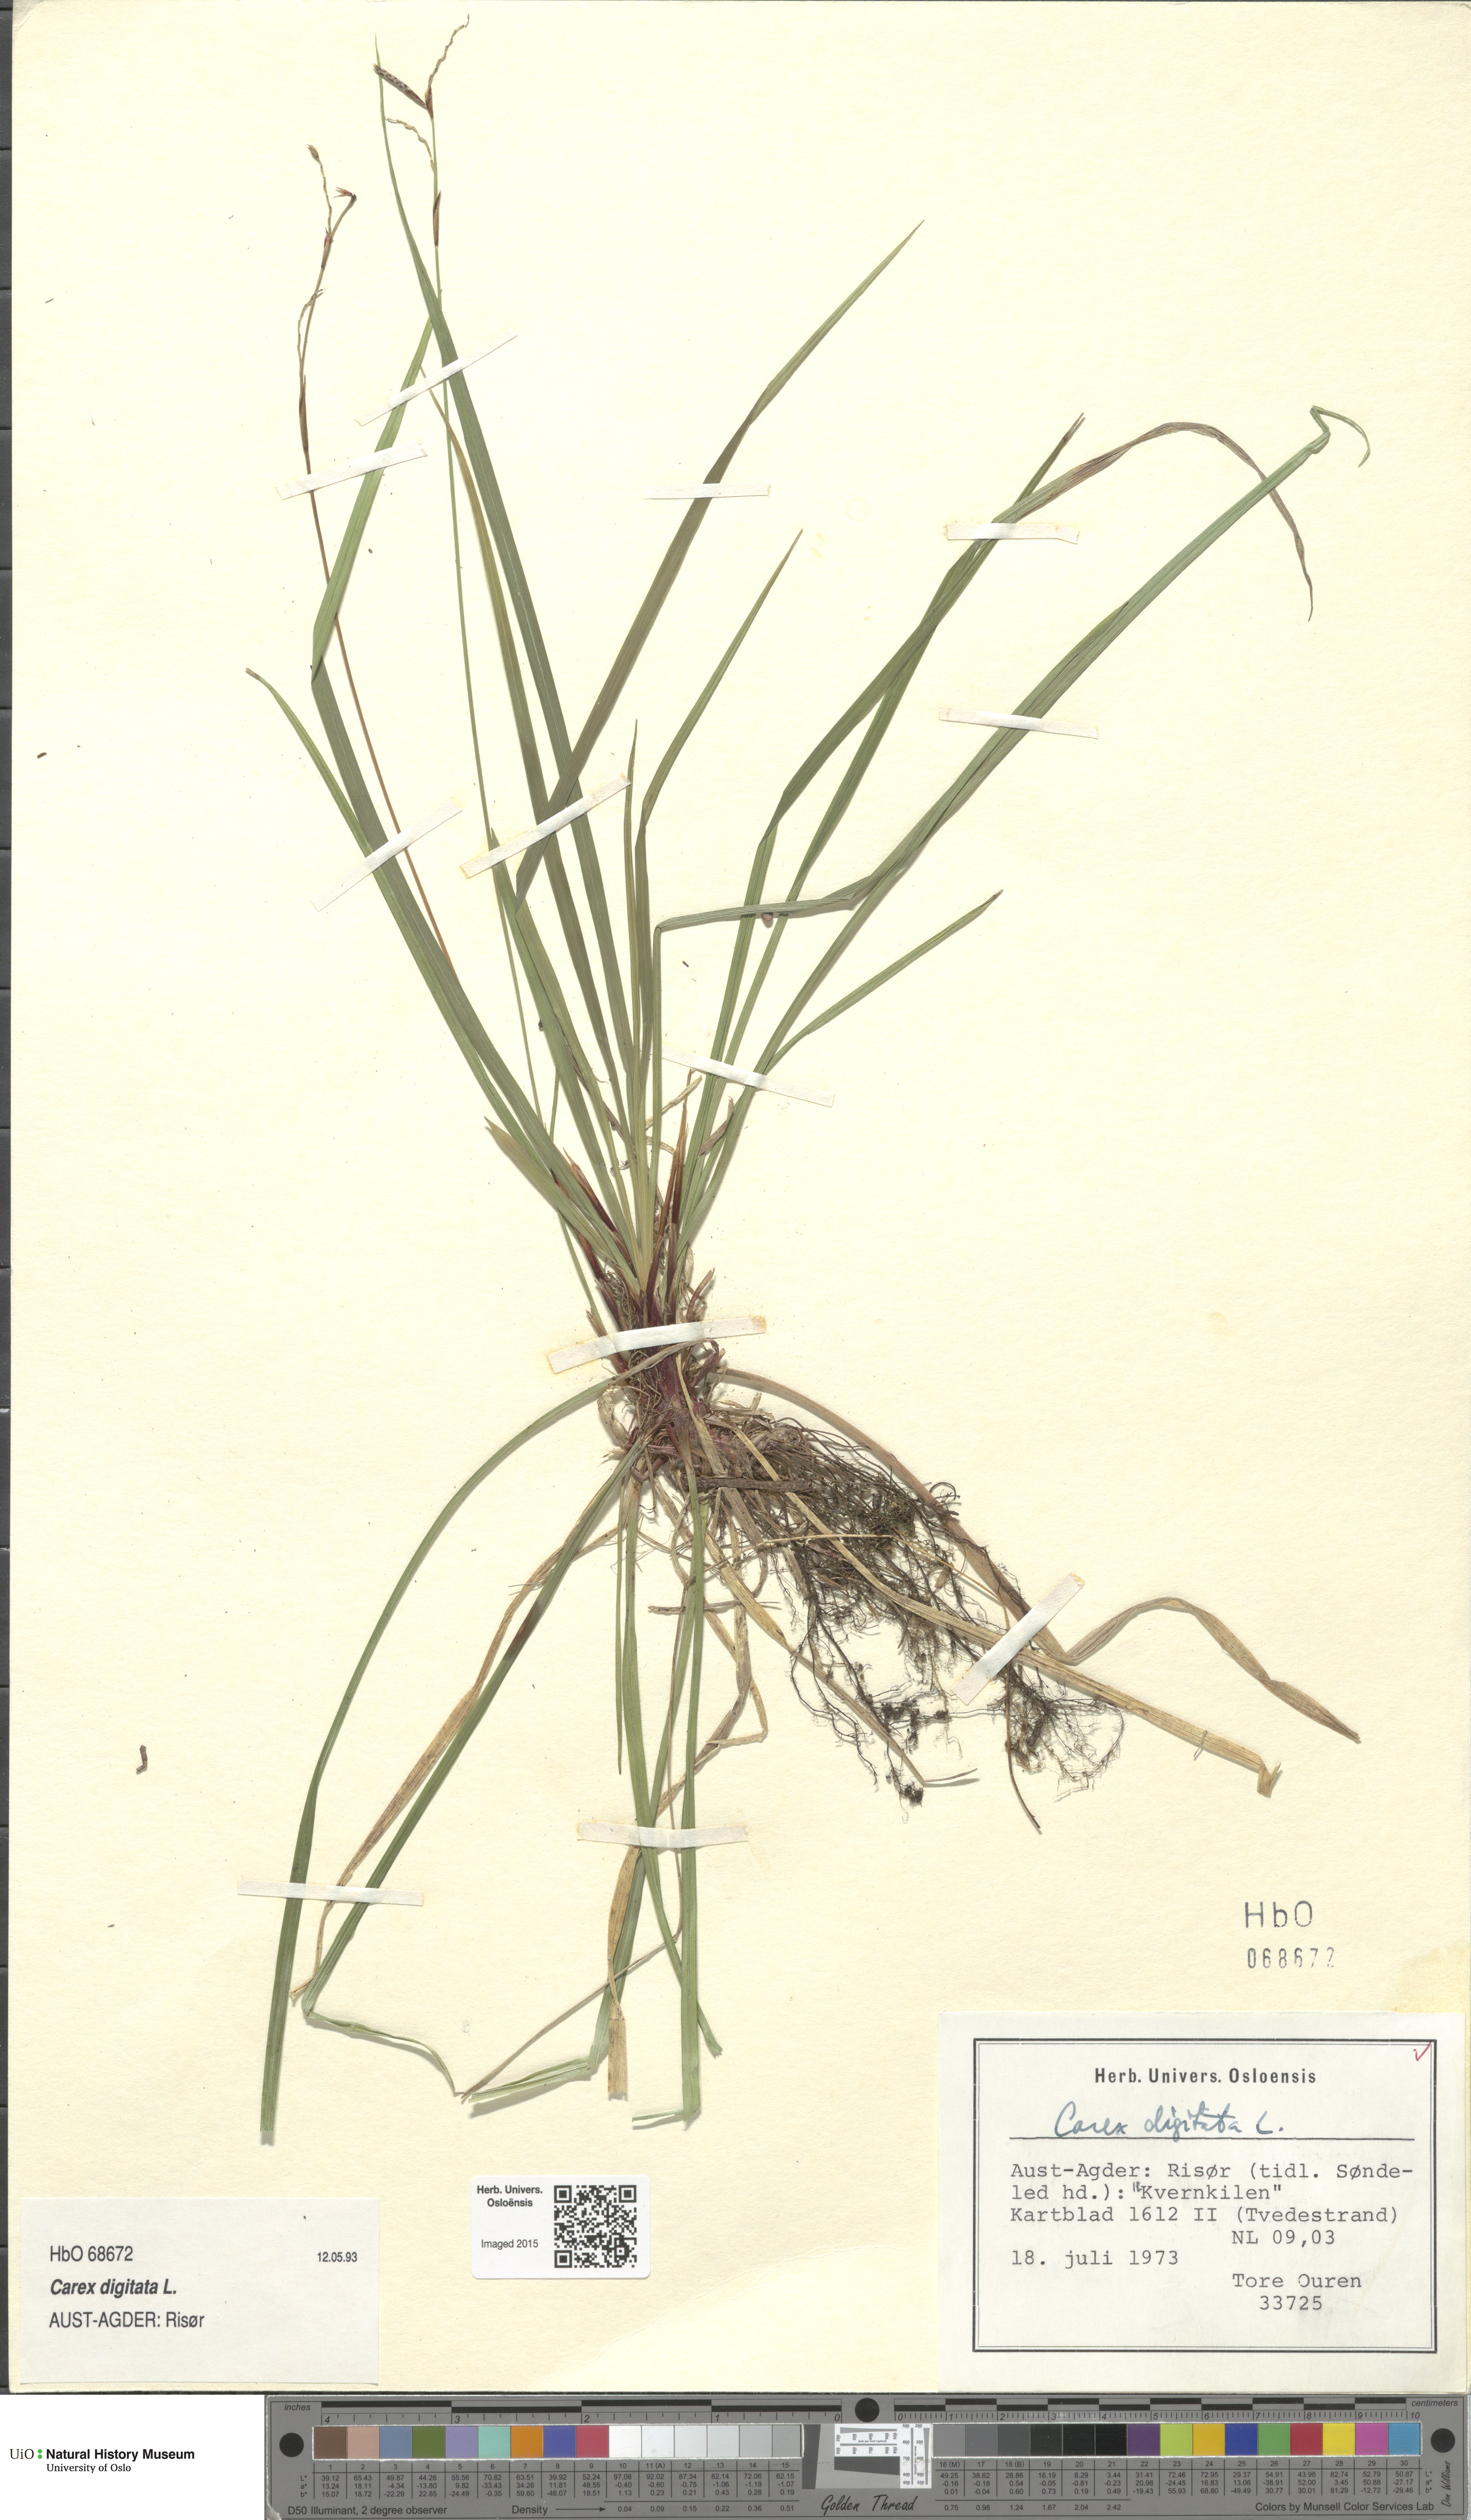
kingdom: Plantae
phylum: Tracheophyta
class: Liliopsida
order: Poales
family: Cyperaceae
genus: Carex
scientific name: Carex digitata
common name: Fingered sedge
